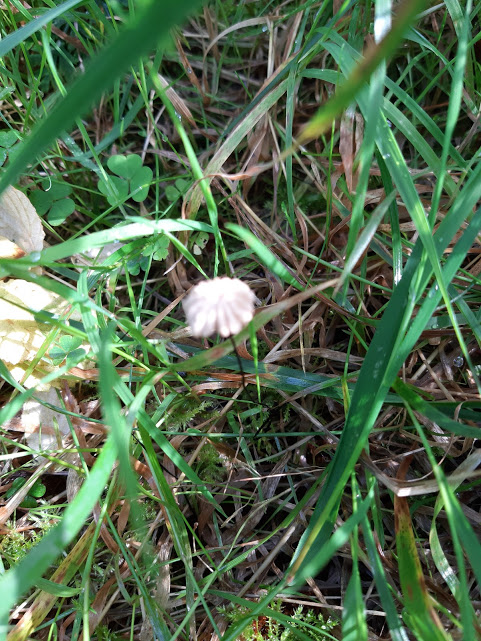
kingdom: Fungi
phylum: Basidiomycota
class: Agaricomycetes
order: Agaricales
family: Marasmiaceae
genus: Marasmius
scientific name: Marasmius
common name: bruskhat
